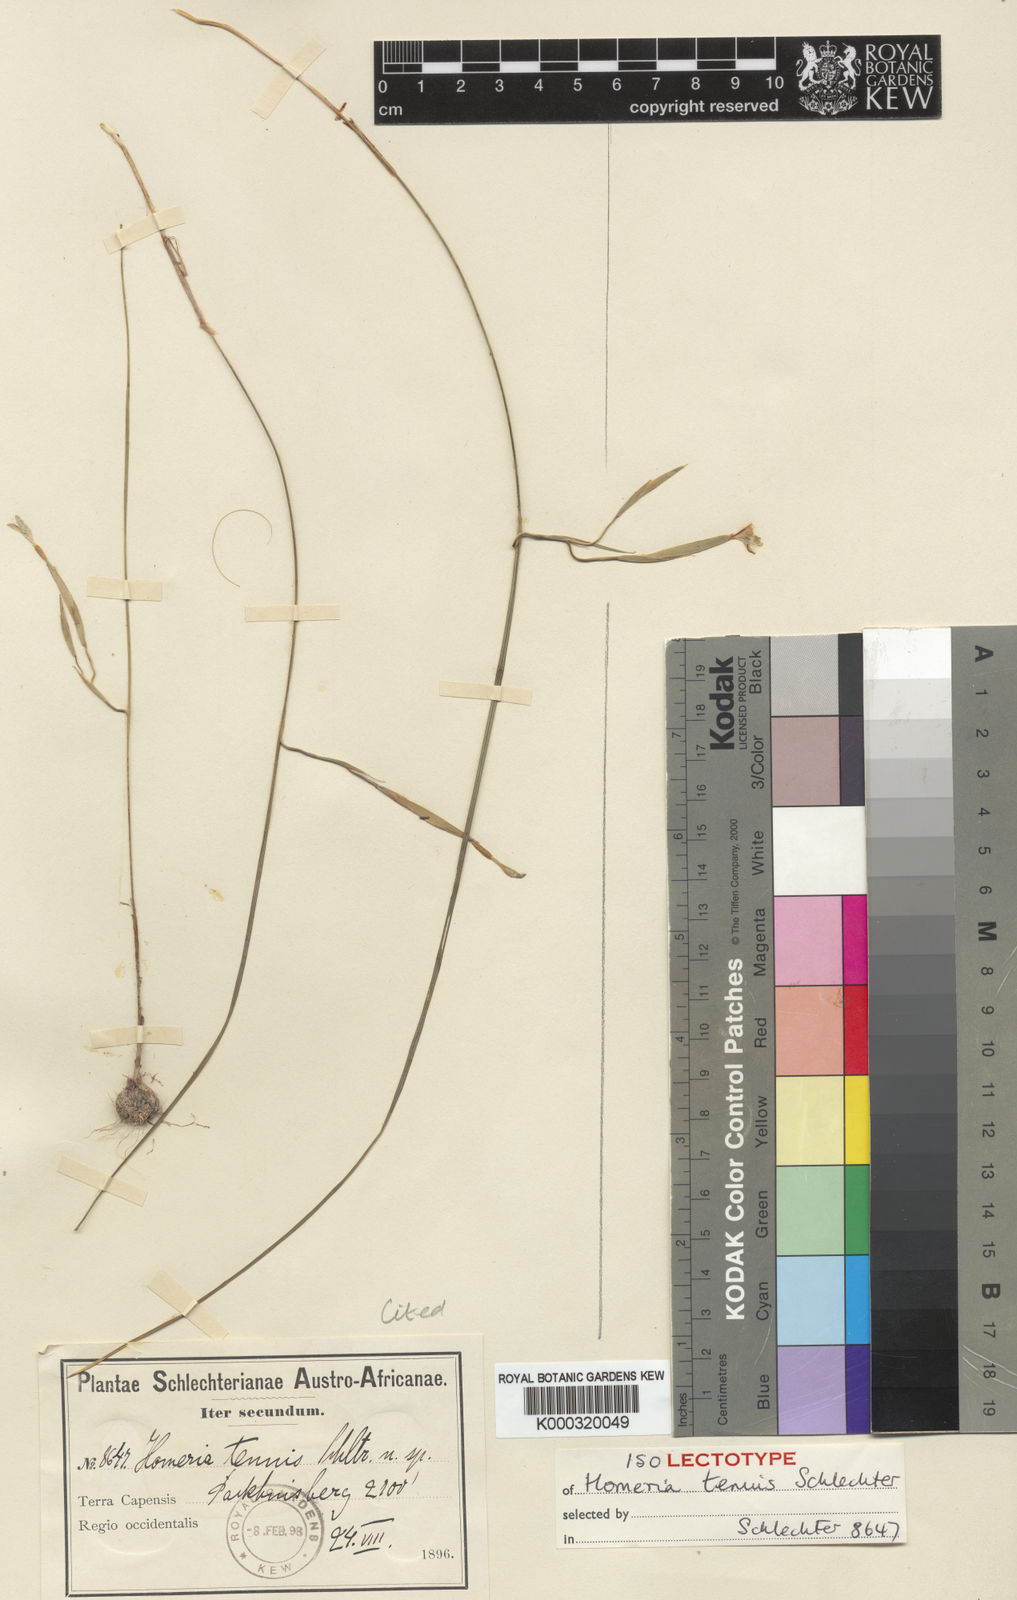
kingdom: Plantae
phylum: Tracheophyta
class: Liliopsida
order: Asparagales
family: Iridaceae
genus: Moraea
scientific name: Moraea demissa
